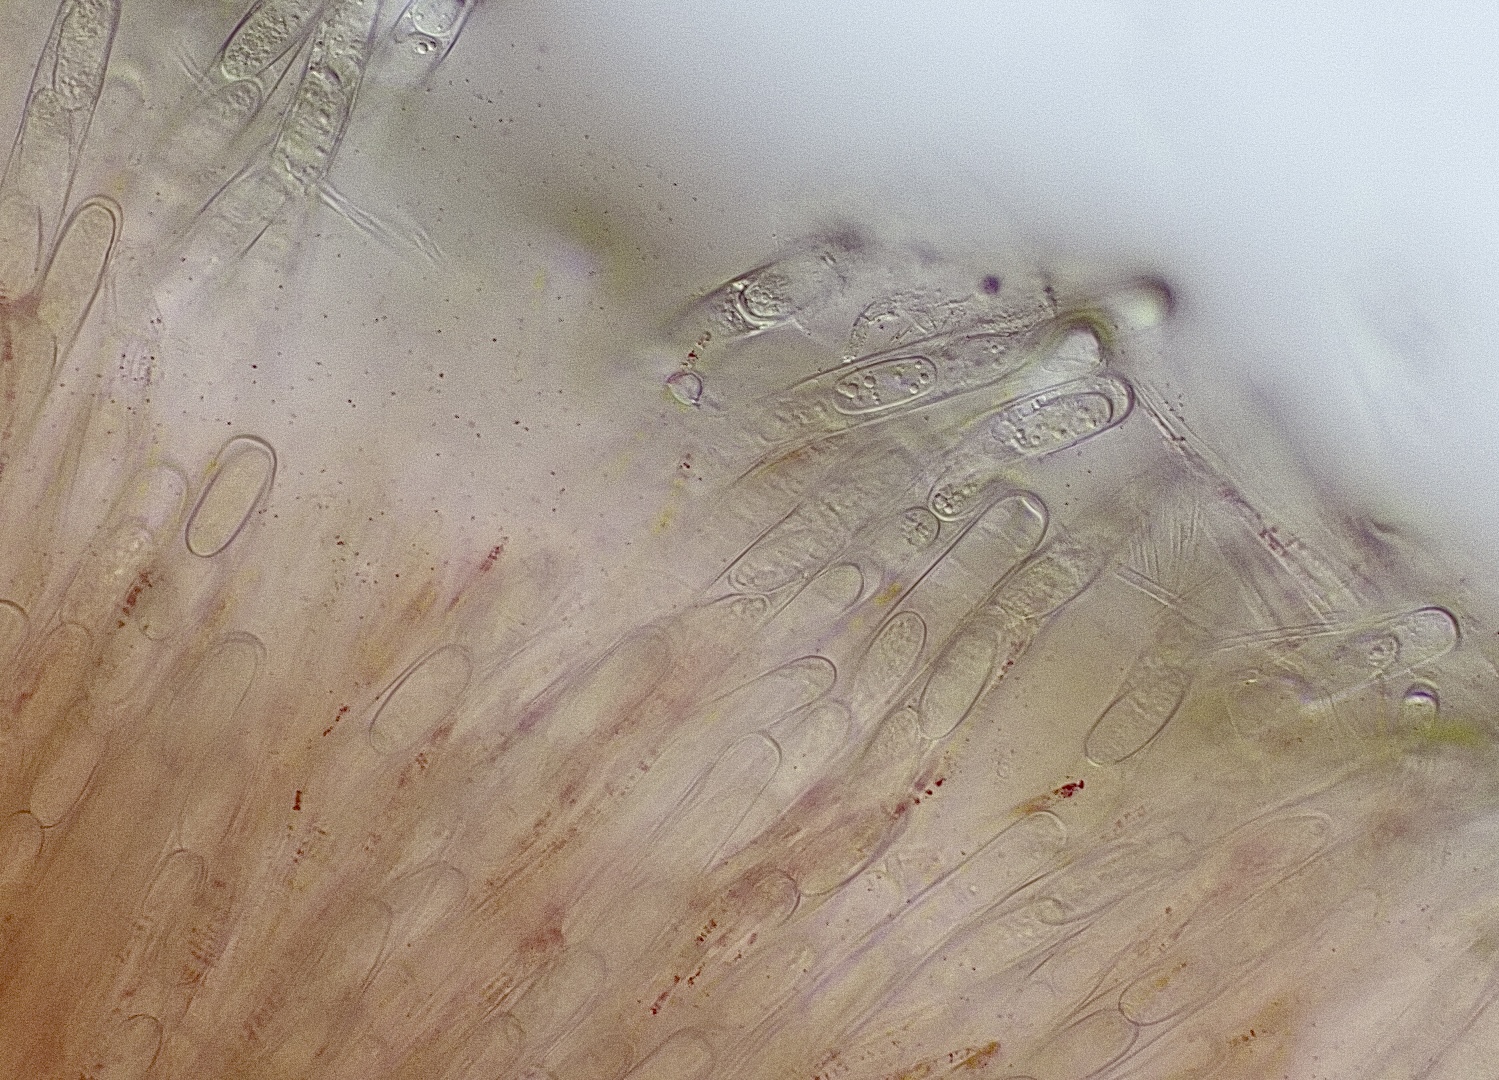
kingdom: Fungi
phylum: Ascomycota
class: Pezizomycetes
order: Pezizales
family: Sarcoscyphaceae
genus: Sarcoscypha
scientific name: Sarcoscypha coccinea
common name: skarlagen-pragtbæger
